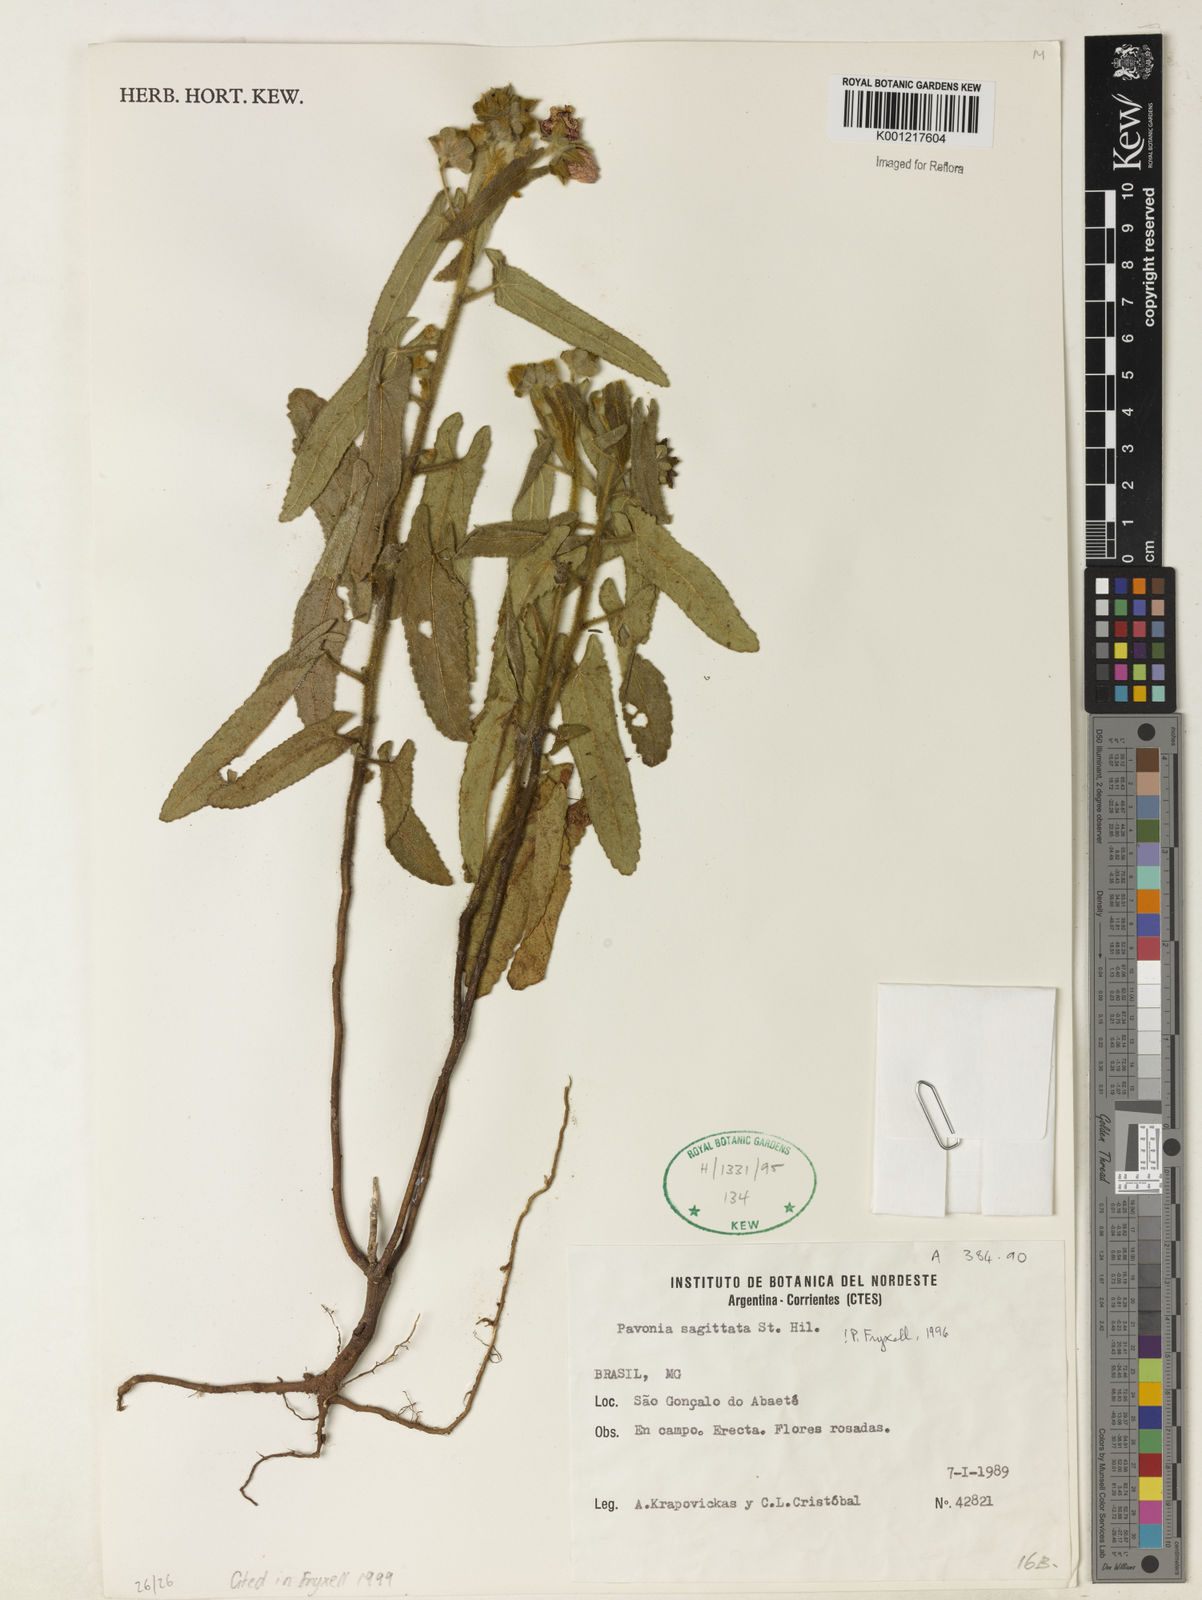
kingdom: Plantae
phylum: Tracheophyta
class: Magnoliopsida
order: Malvales
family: Malvaceae
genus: Pavonia
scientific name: Pavonia
